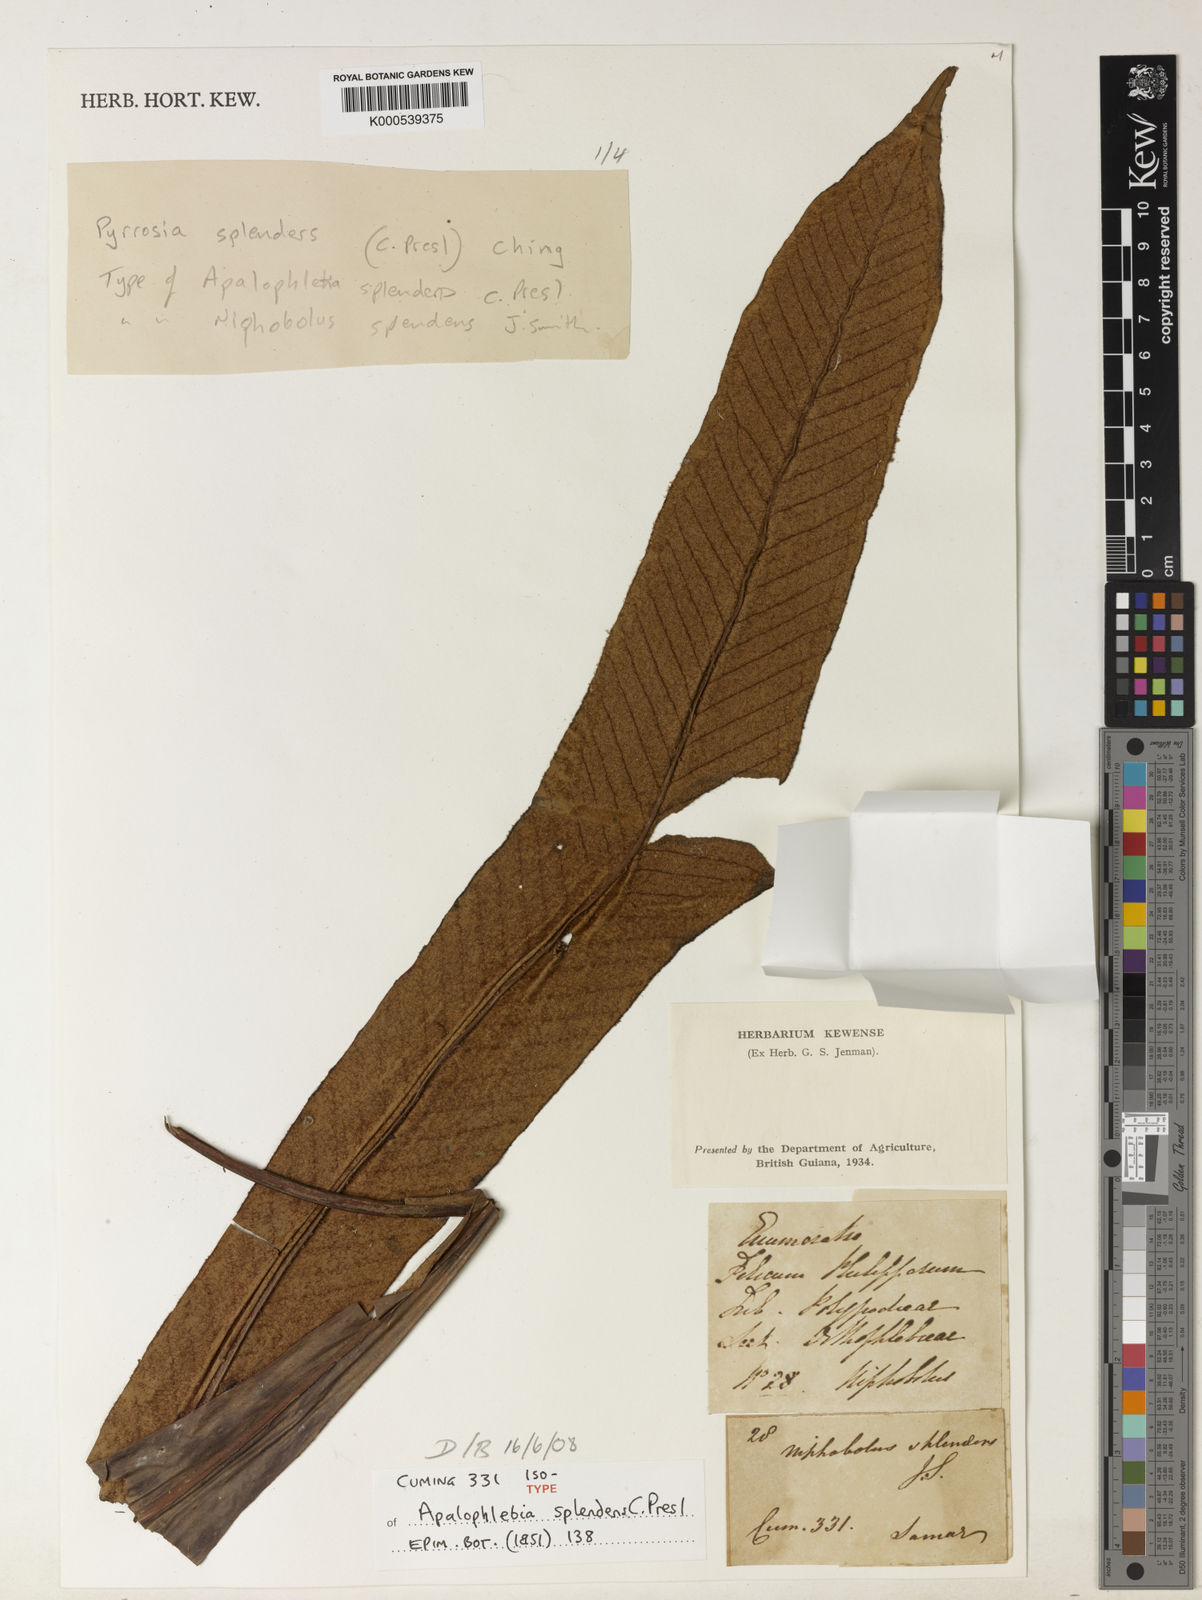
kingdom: Plantae
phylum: Tracheophyta
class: Polypodiopsida
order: Polypodiales
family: Polypodiaceae
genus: Pyrrosia
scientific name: Pyrrosia splendens
